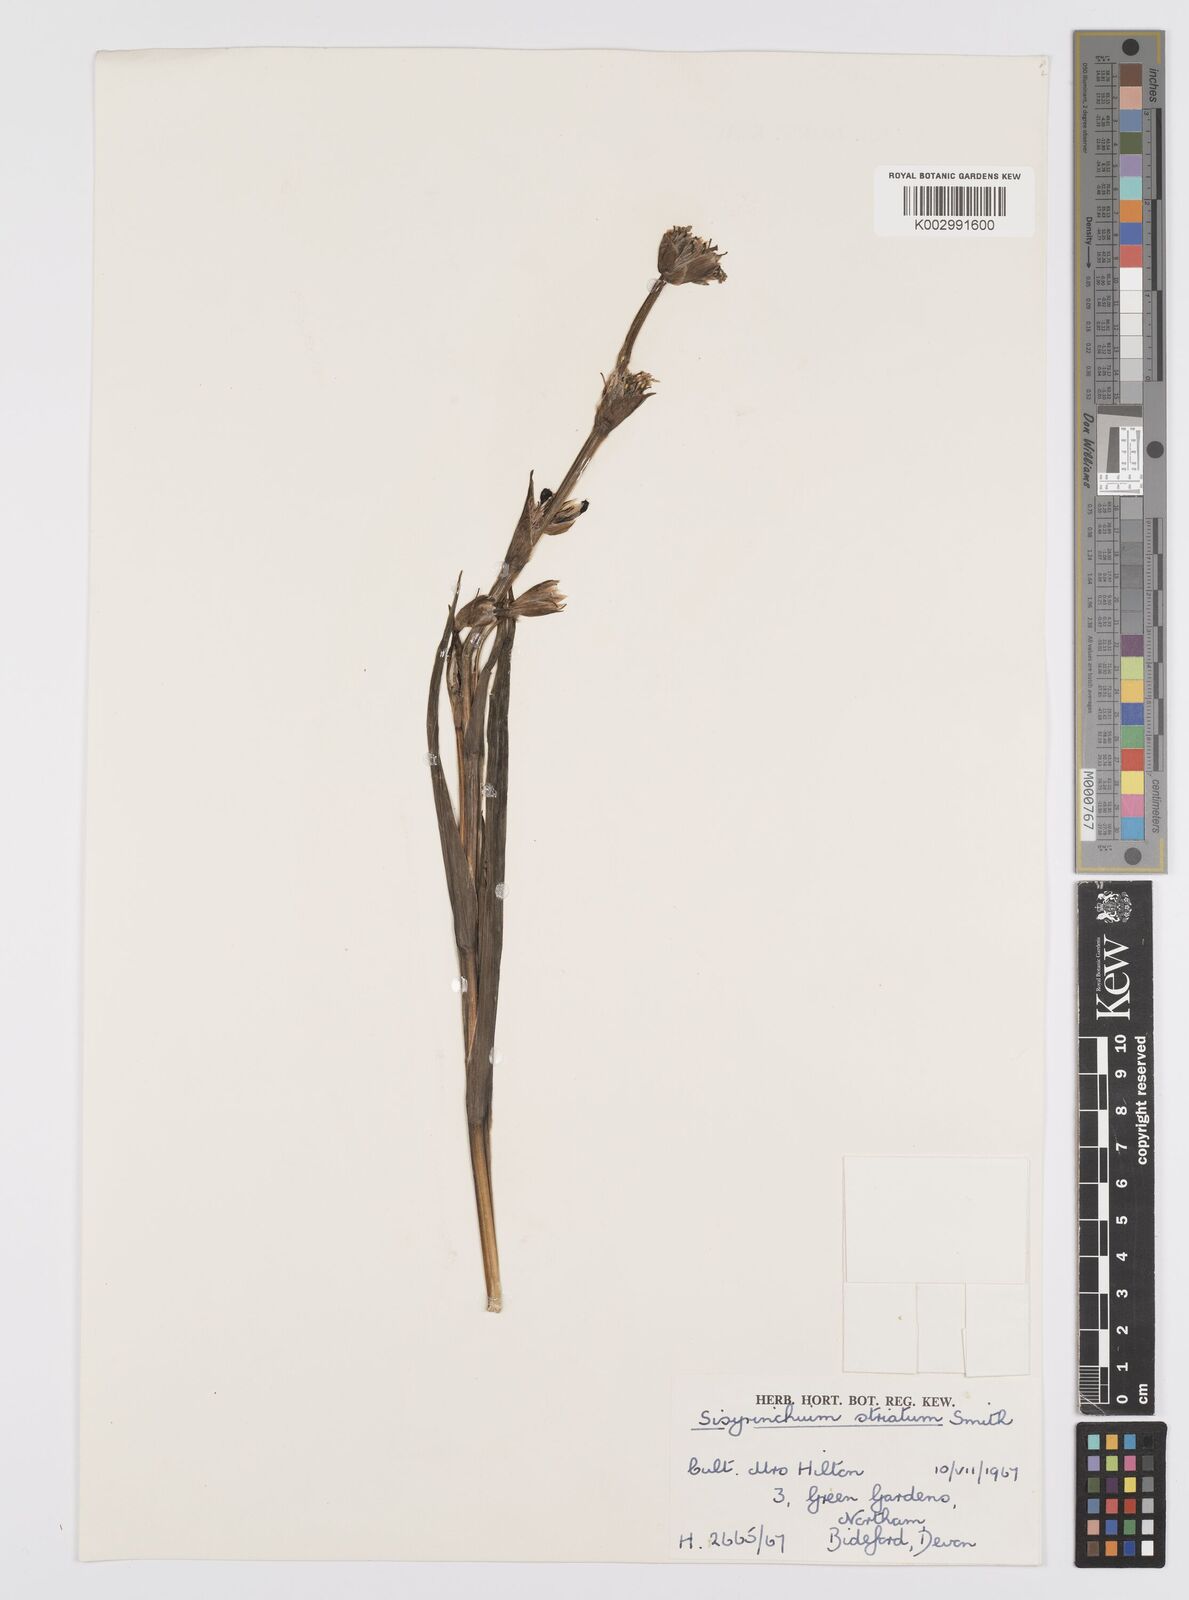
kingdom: Plantae
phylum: Tracheophyta
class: Liliopsida
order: Asparagales
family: Iridaceae
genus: Sisyrinchium
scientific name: Sisyrinchium striatum
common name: Pale yellow-eyed-grass
